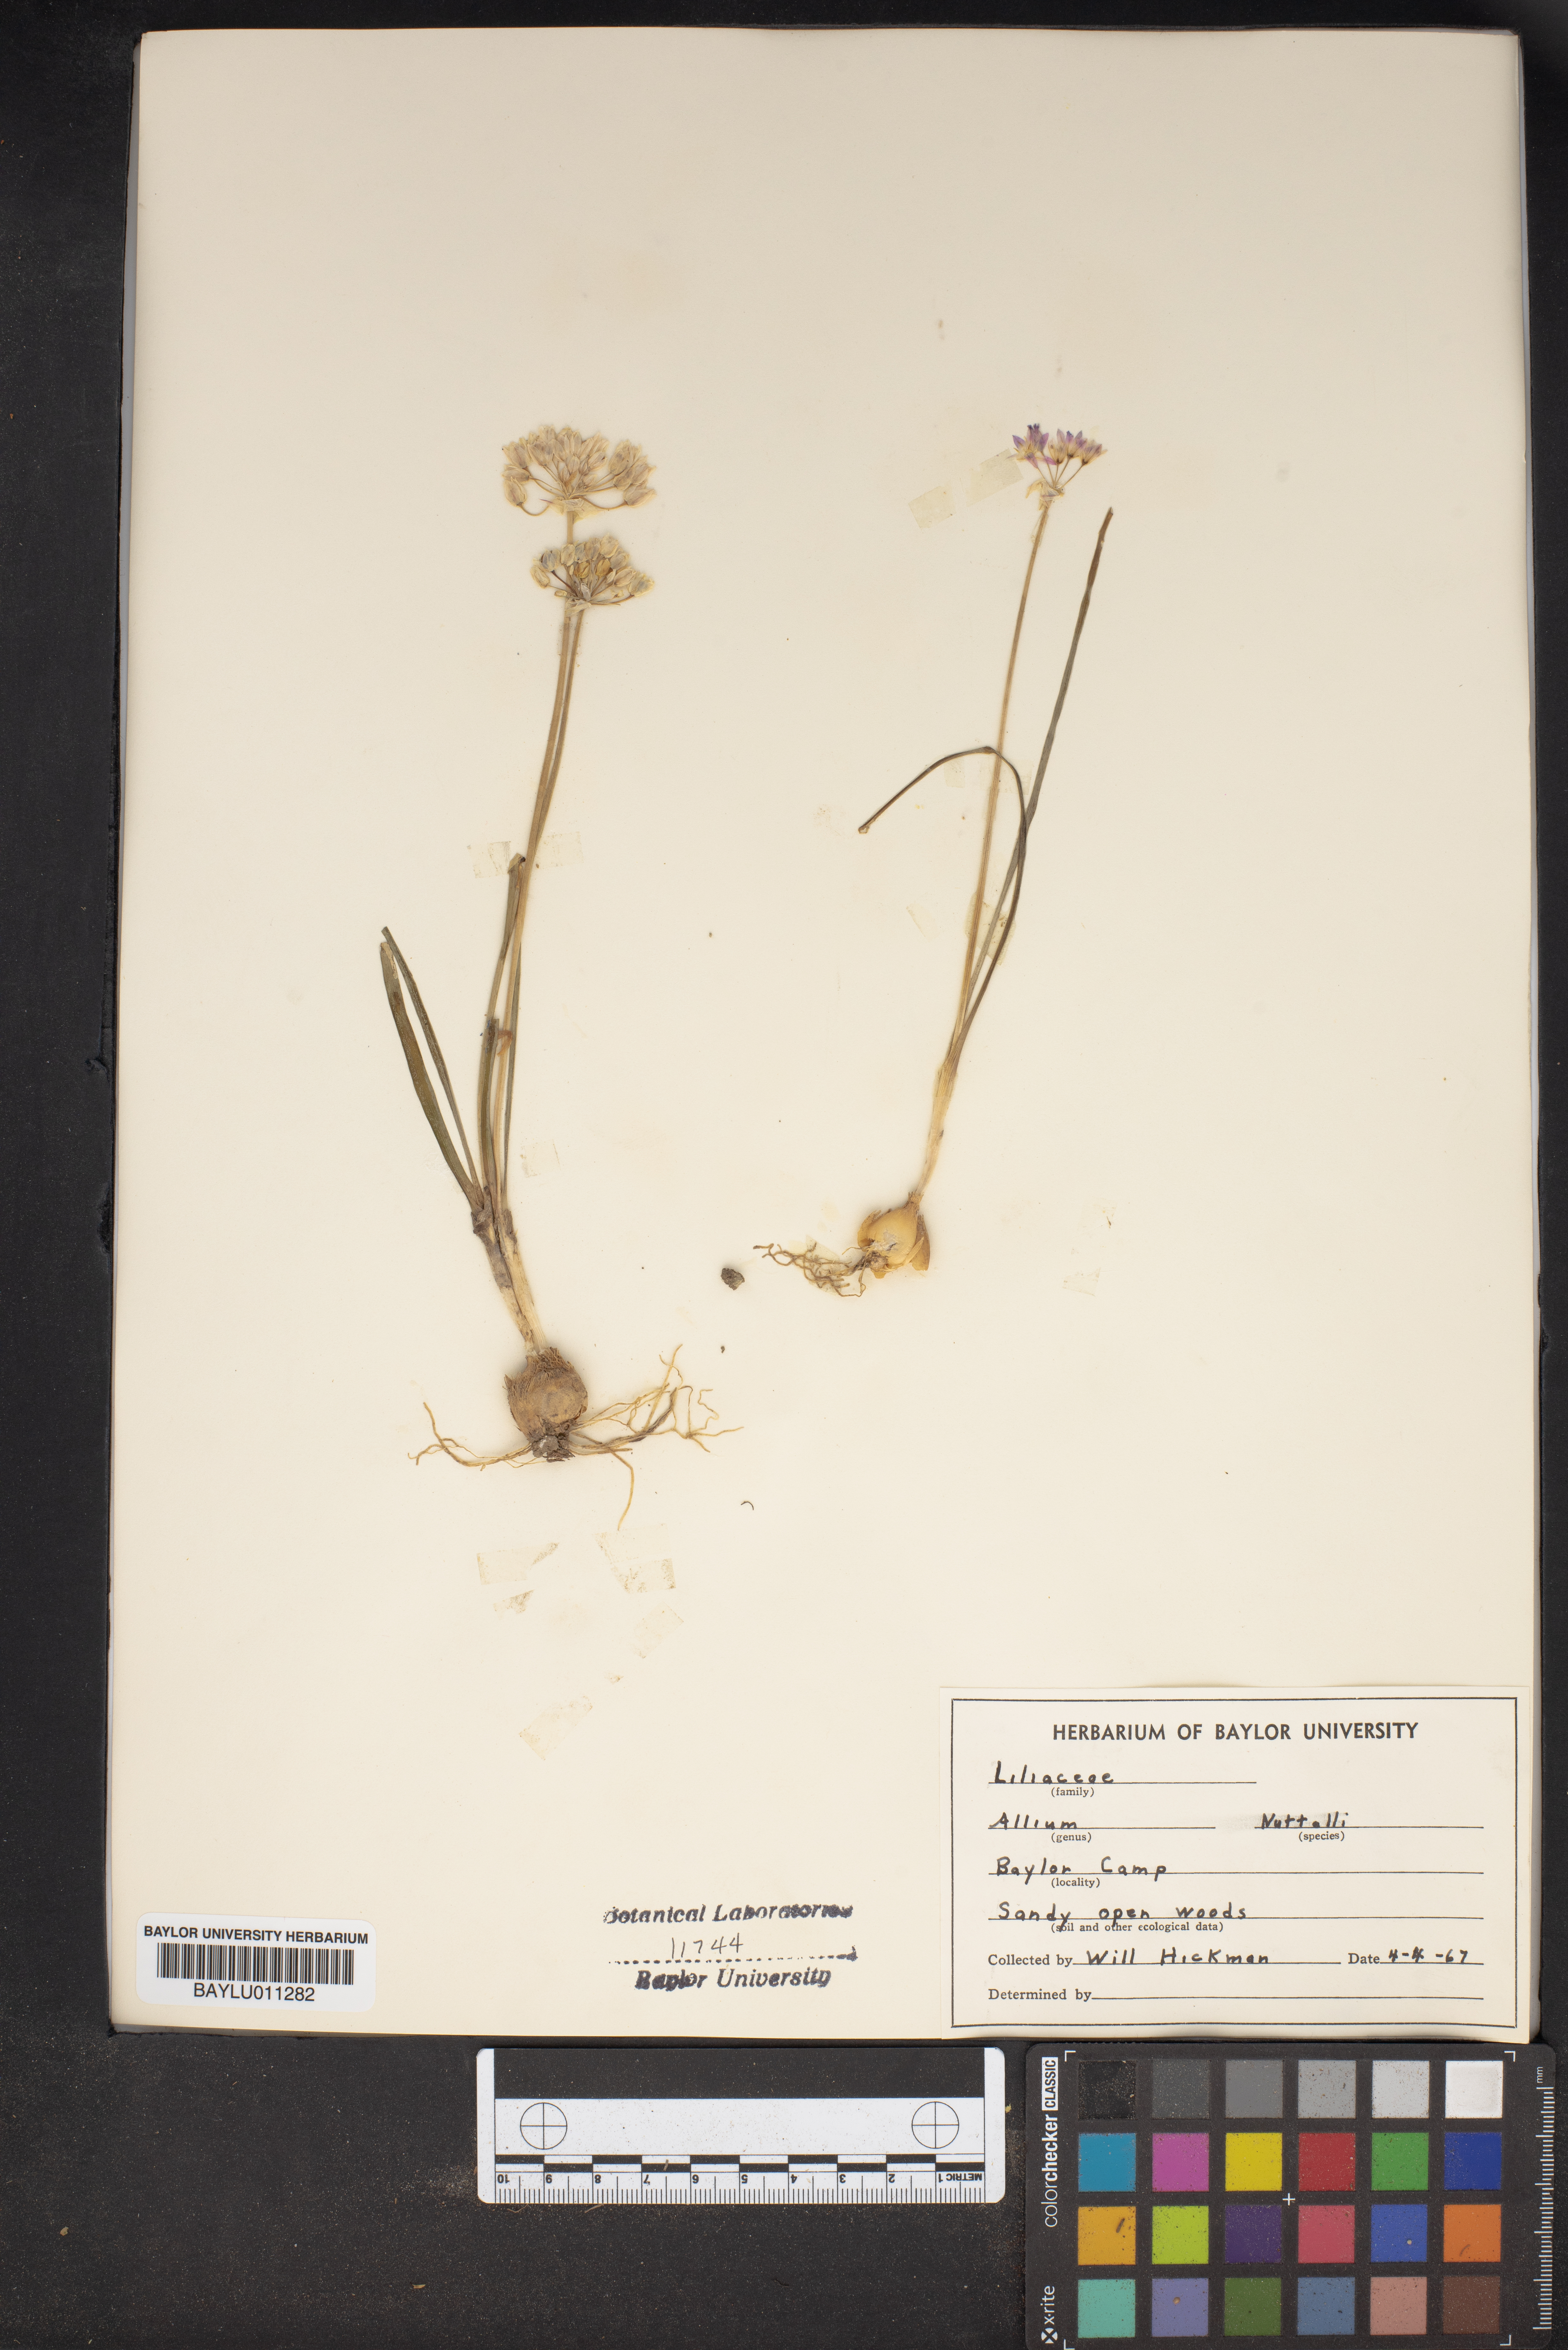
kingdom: Plantae
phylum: Tracheophyta
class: Liliopsida
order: Asparagales
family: Amaryllidaceae
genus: Allium
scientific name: Allium drummondii
